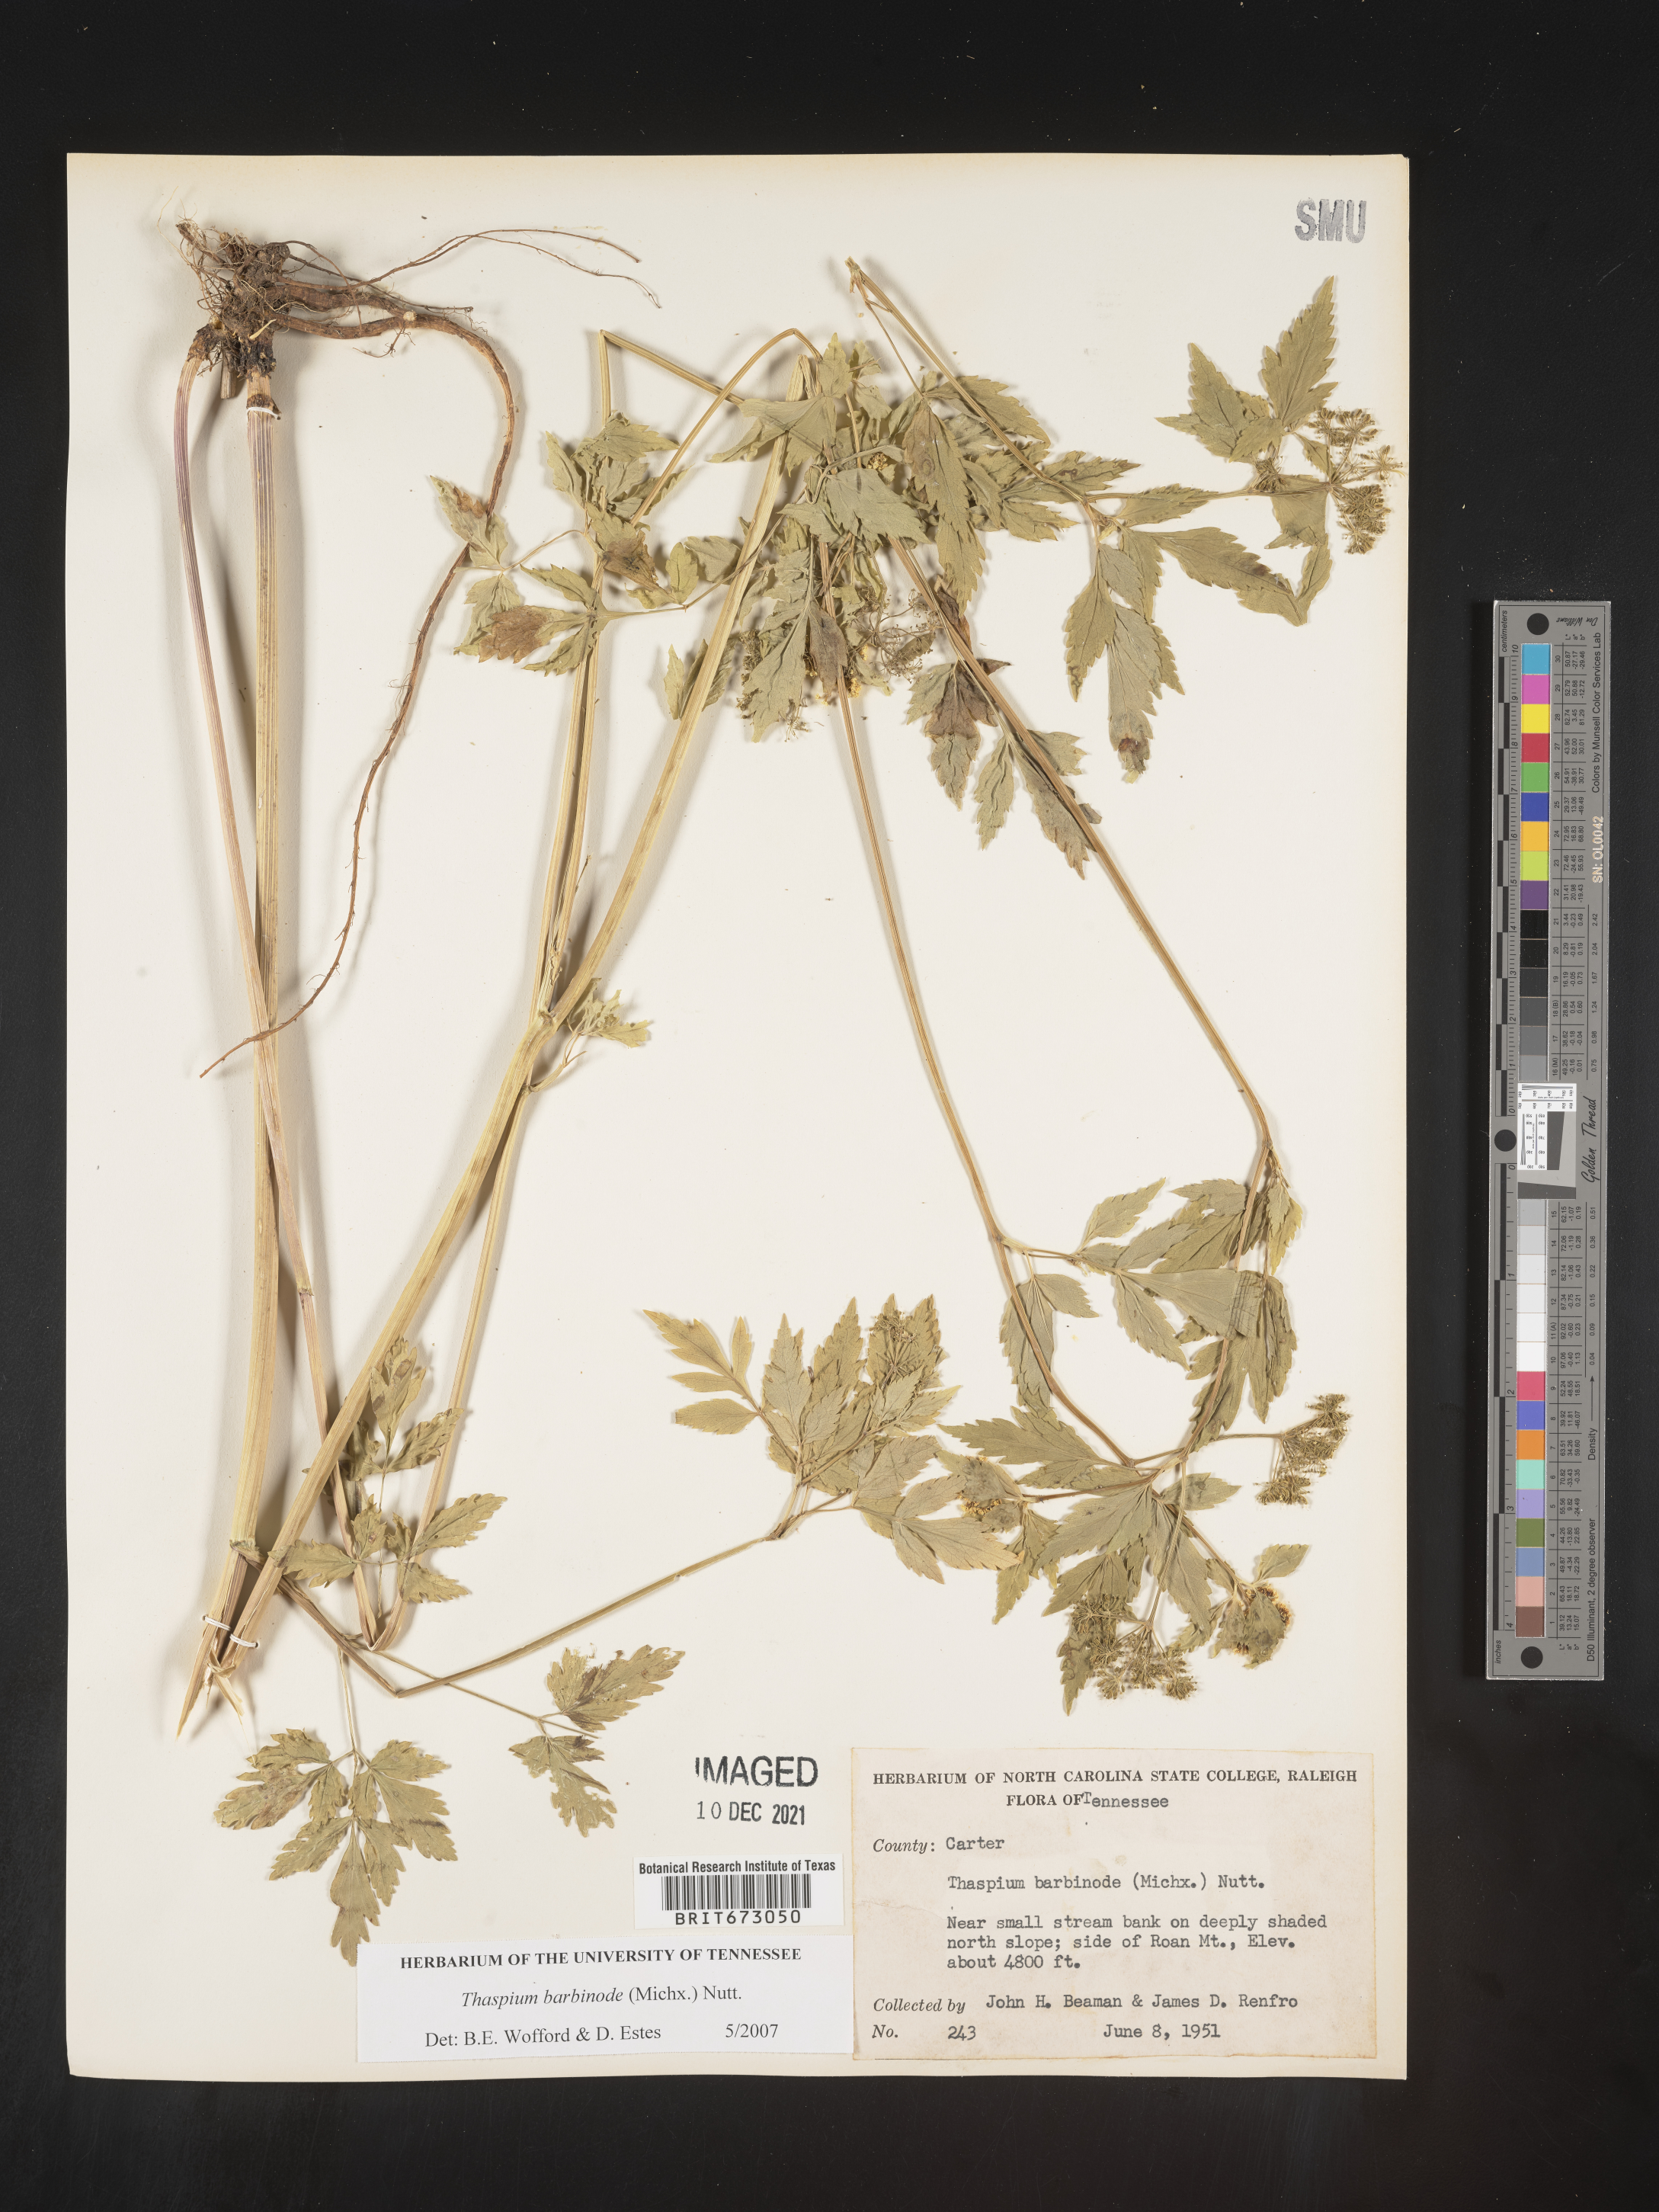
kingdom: Plantae
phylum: Tracheophyta
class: Magnoliopsida
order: Apiales
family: Apiaceae
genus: Thaspium
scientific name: Thaspium barbinode
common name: Bearded meadow-parsnip
